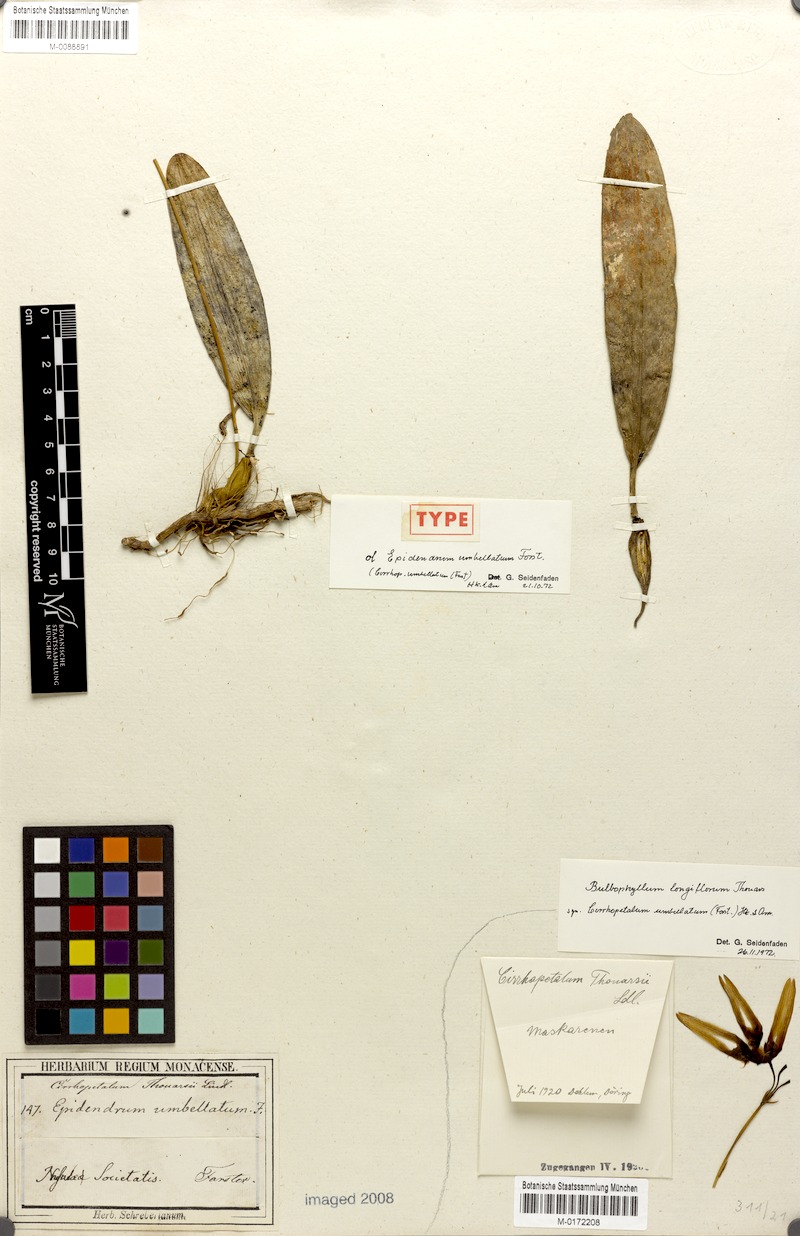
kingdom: Plantae
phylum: Tracheophyta
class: Liliopsida
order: Asparagales
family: Orchidaceae
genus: Bulbophyllum
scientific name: Bulbophyllum longiflorum
